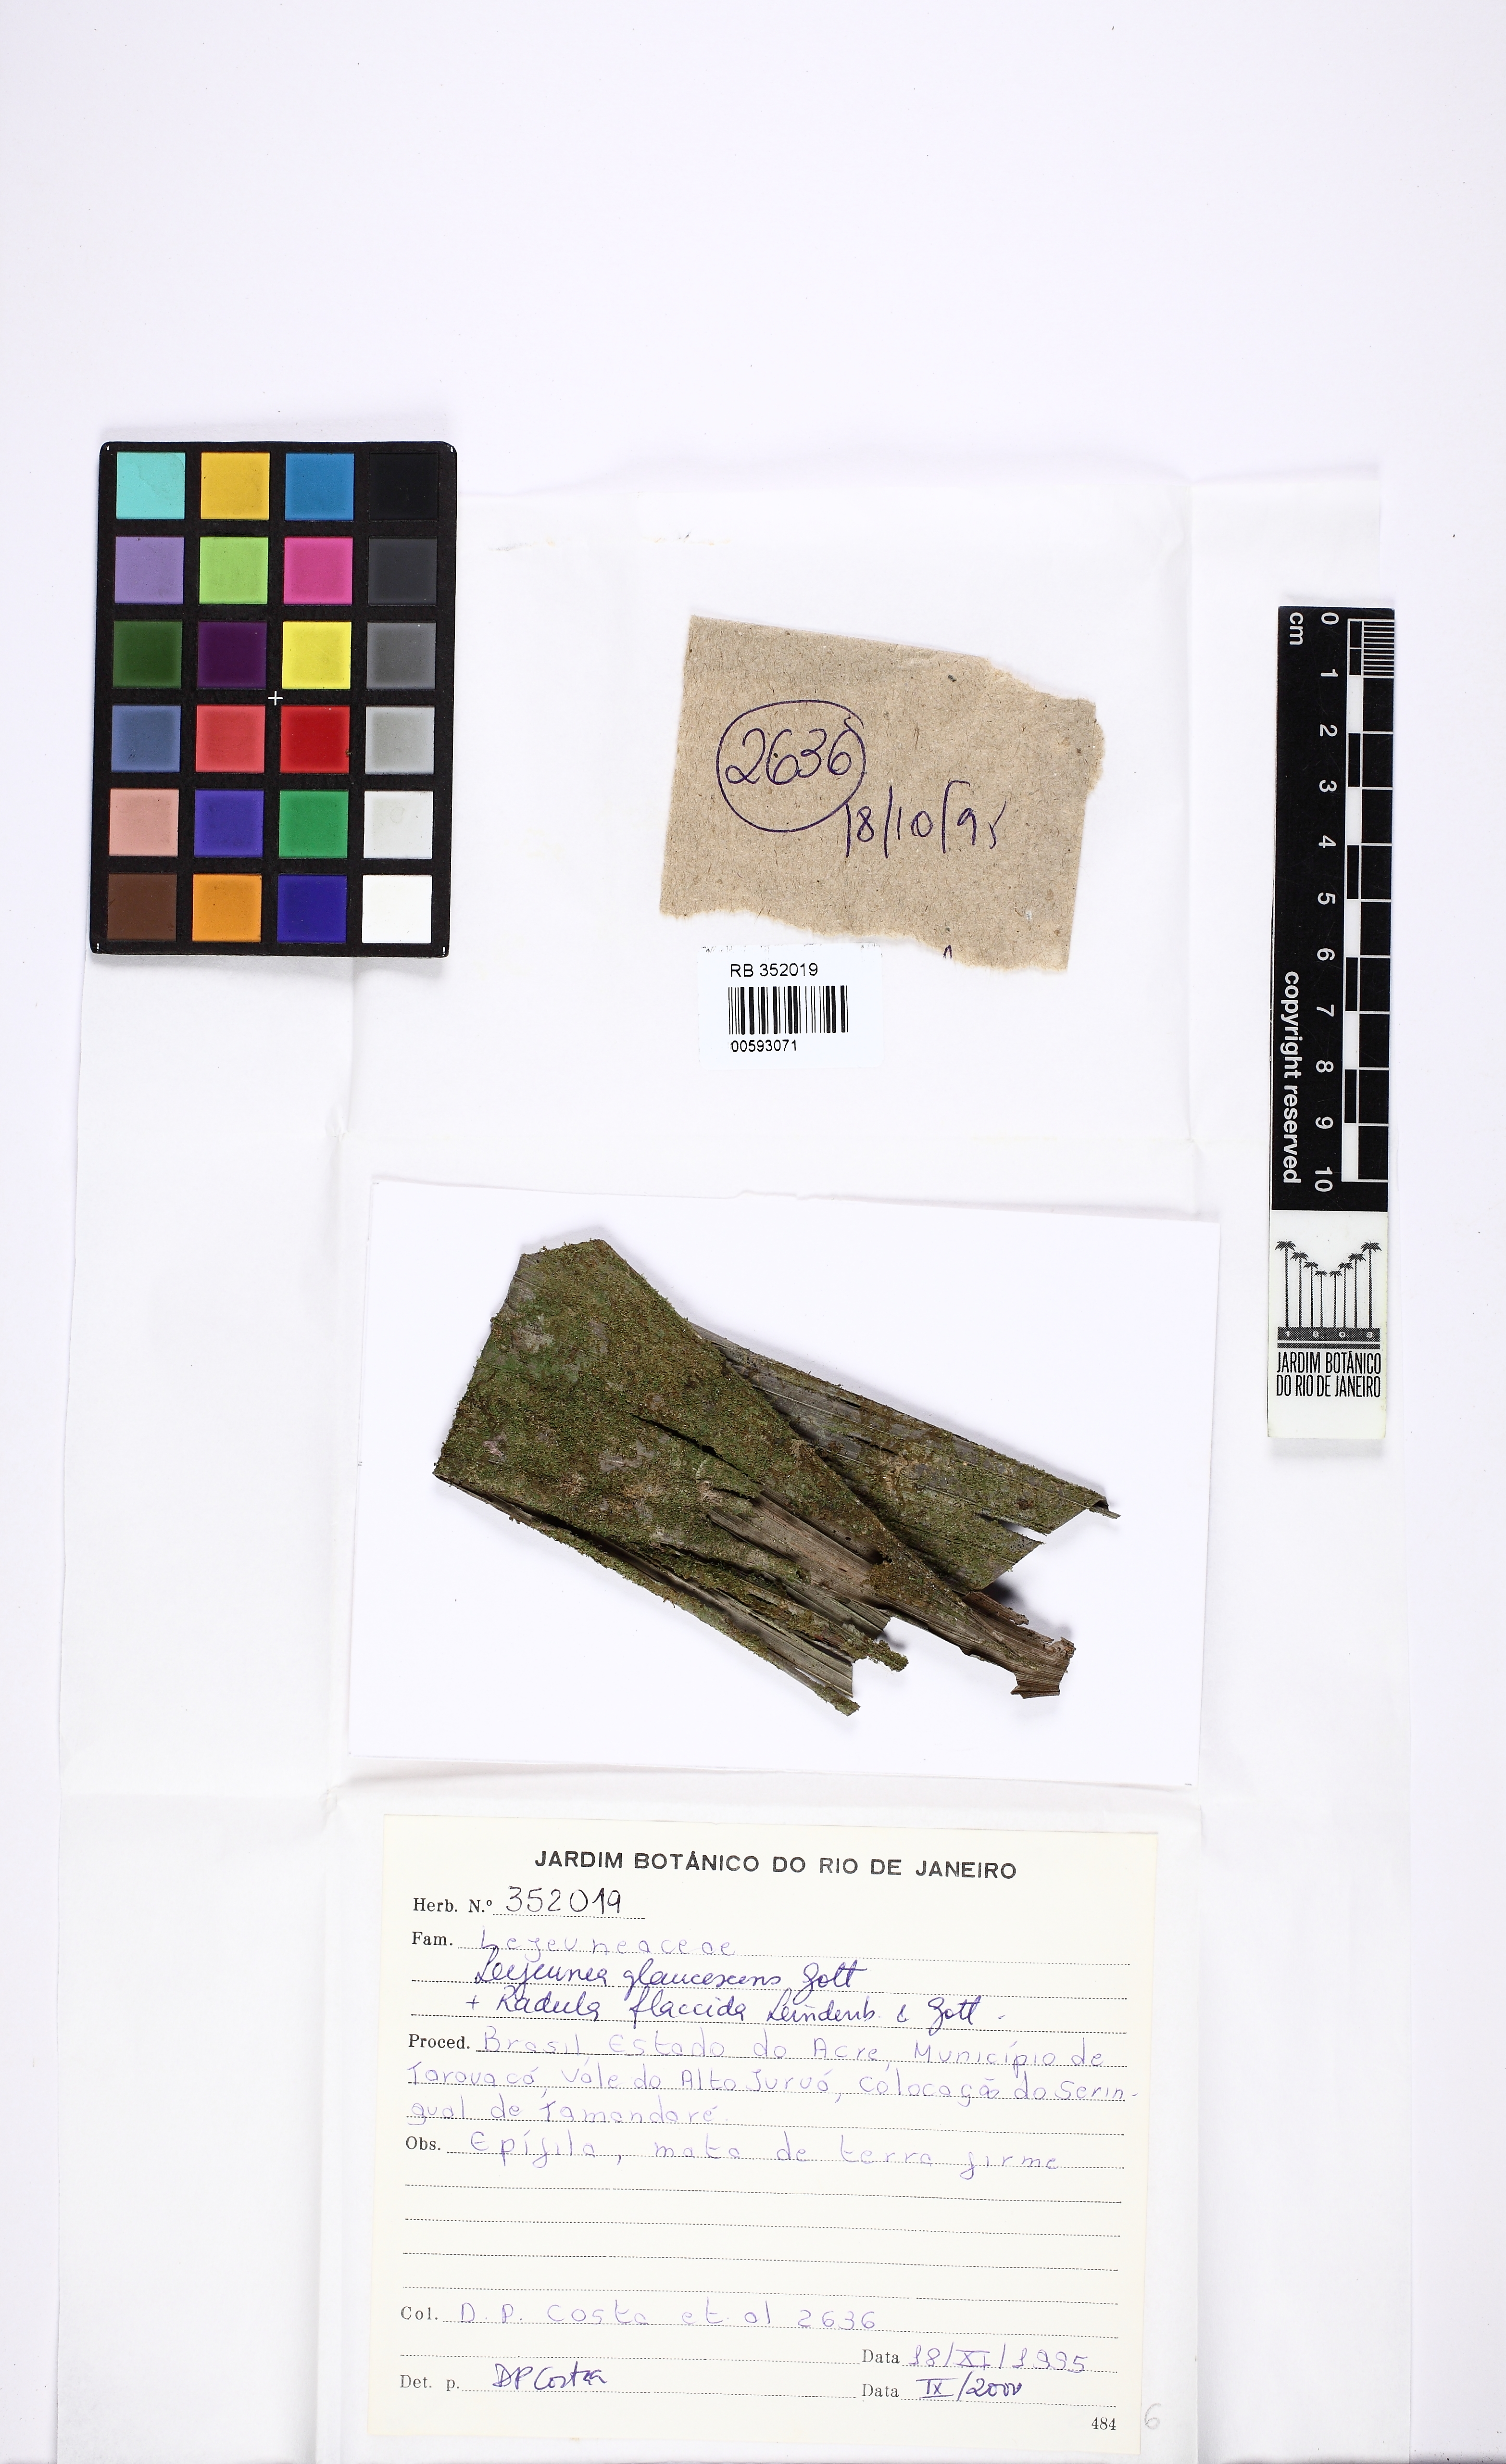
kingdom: Plantae
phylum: Marchantiophyta
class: Jungermanniopsida
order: Porellales
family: Lejeuneaceae
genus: Lejeunea
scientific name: Lejeunea glaucescens
